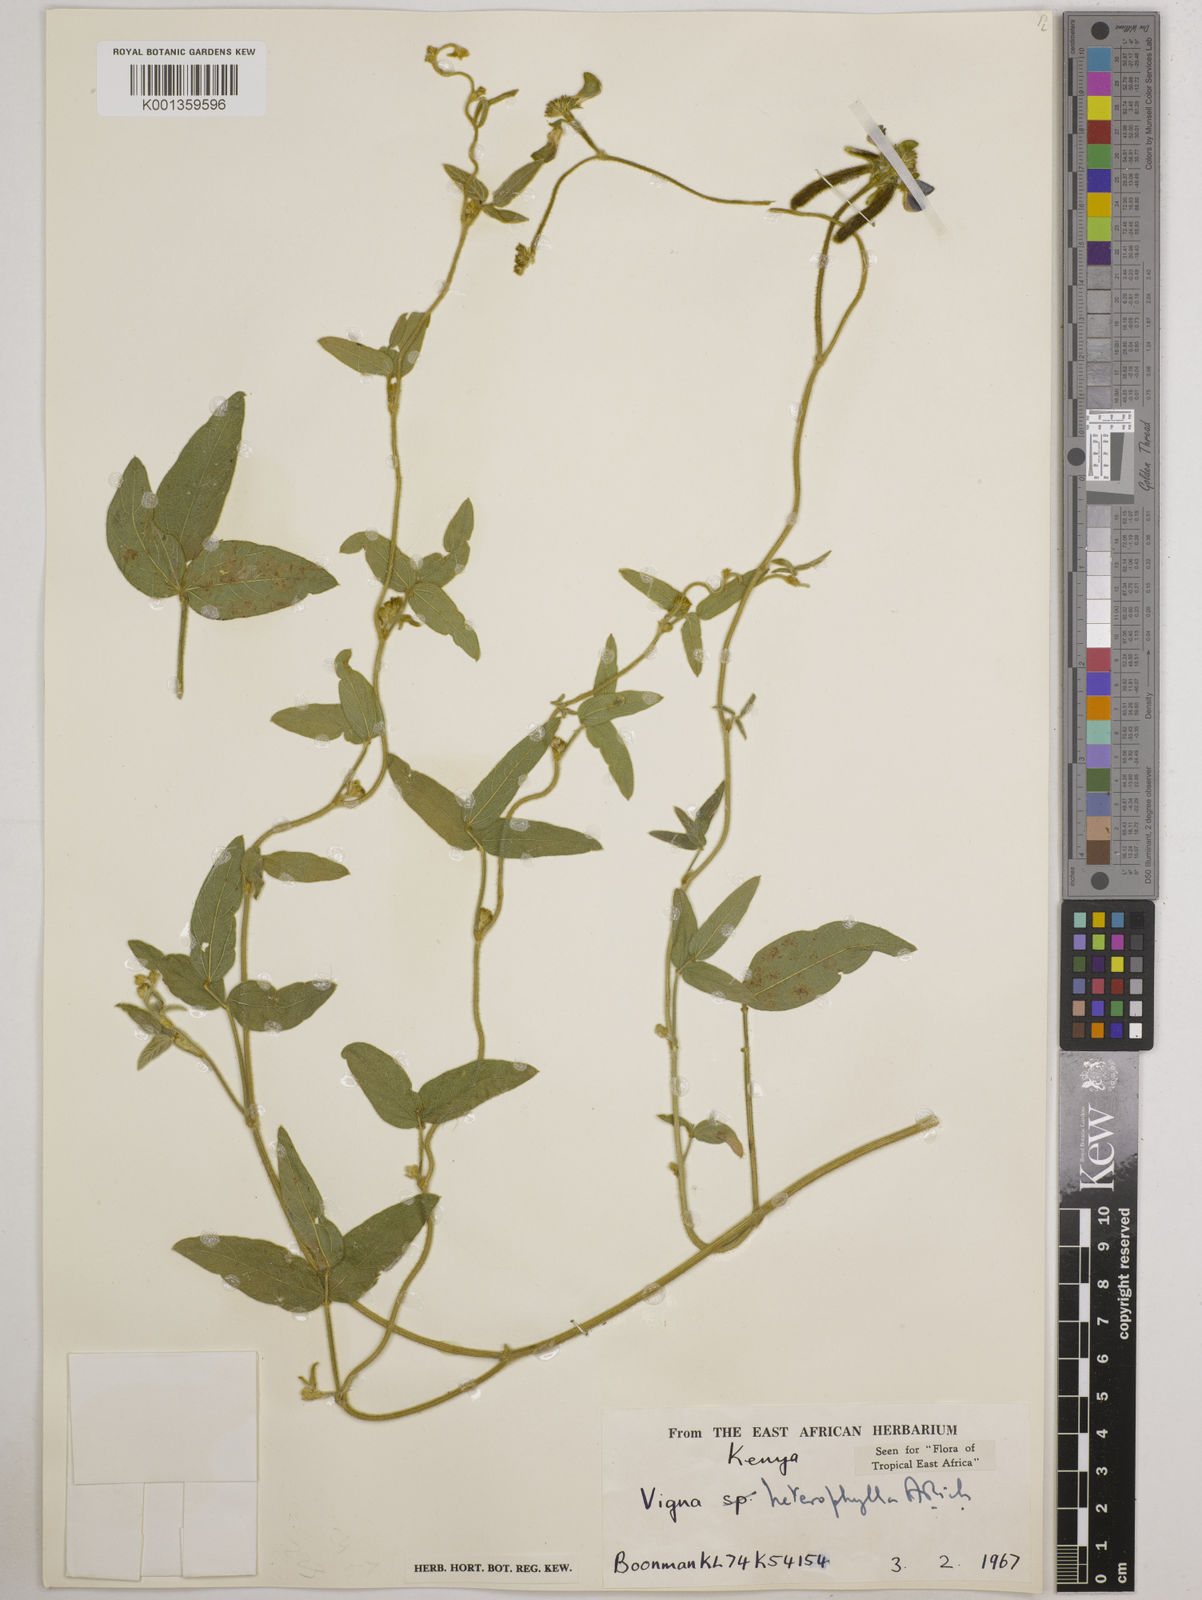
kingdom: Plantae
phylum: Tracheophyta
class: Magnoliopsida
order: Fabales
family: Fabaceae
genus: Vigna
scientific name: Vigna heterophylla
